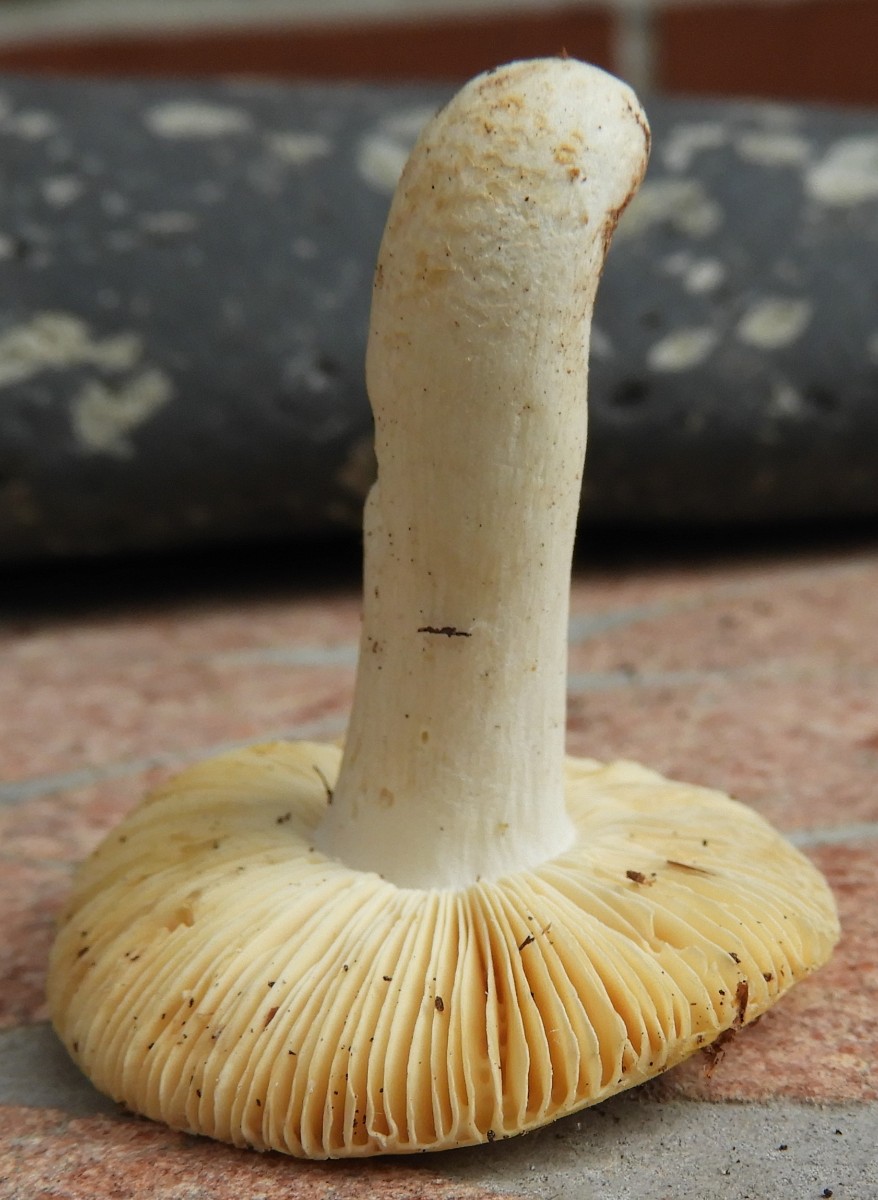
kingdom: Fungi
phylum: Basidiomycota
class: Agaricomycetes
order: Russulales
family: Russulaceae
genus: Russula
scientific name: Russula risigallina
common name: abrikos-skørhat
